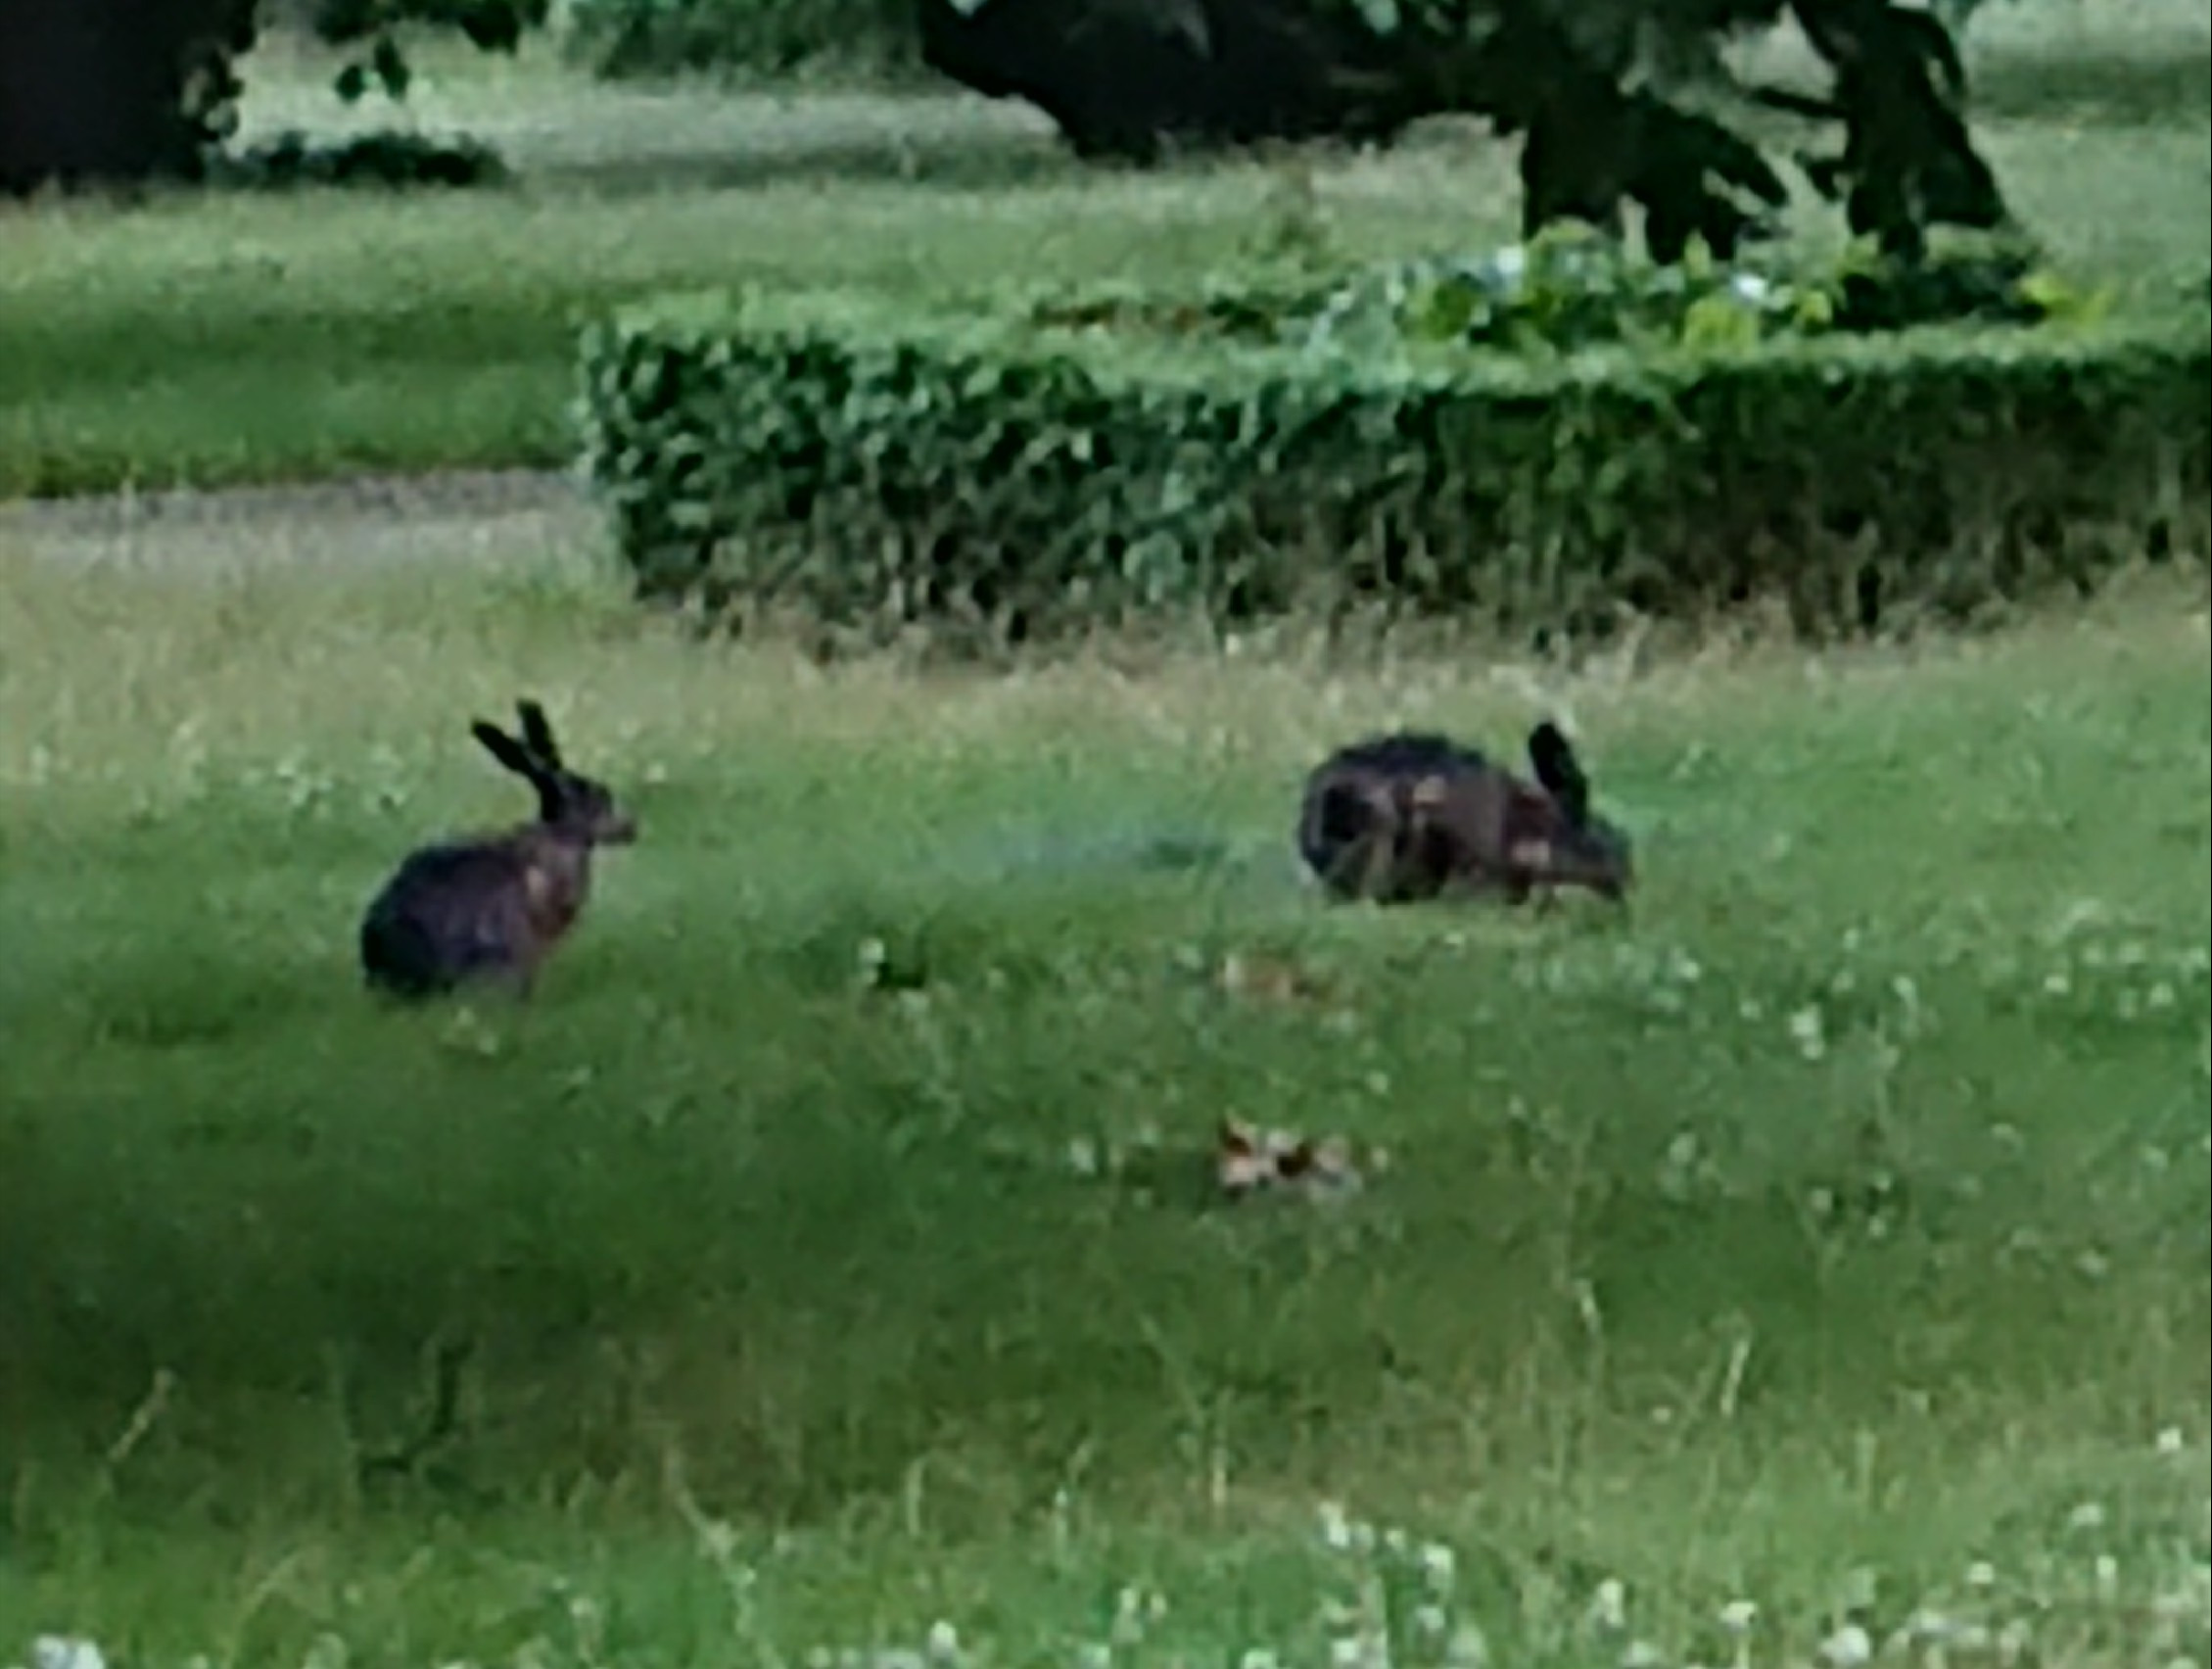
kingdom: Animalia
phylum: Chordata
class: Mammalia
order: Lagomorpha
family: Leporidae
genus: Lepus
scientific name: Lepus europaeus
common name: Hare
